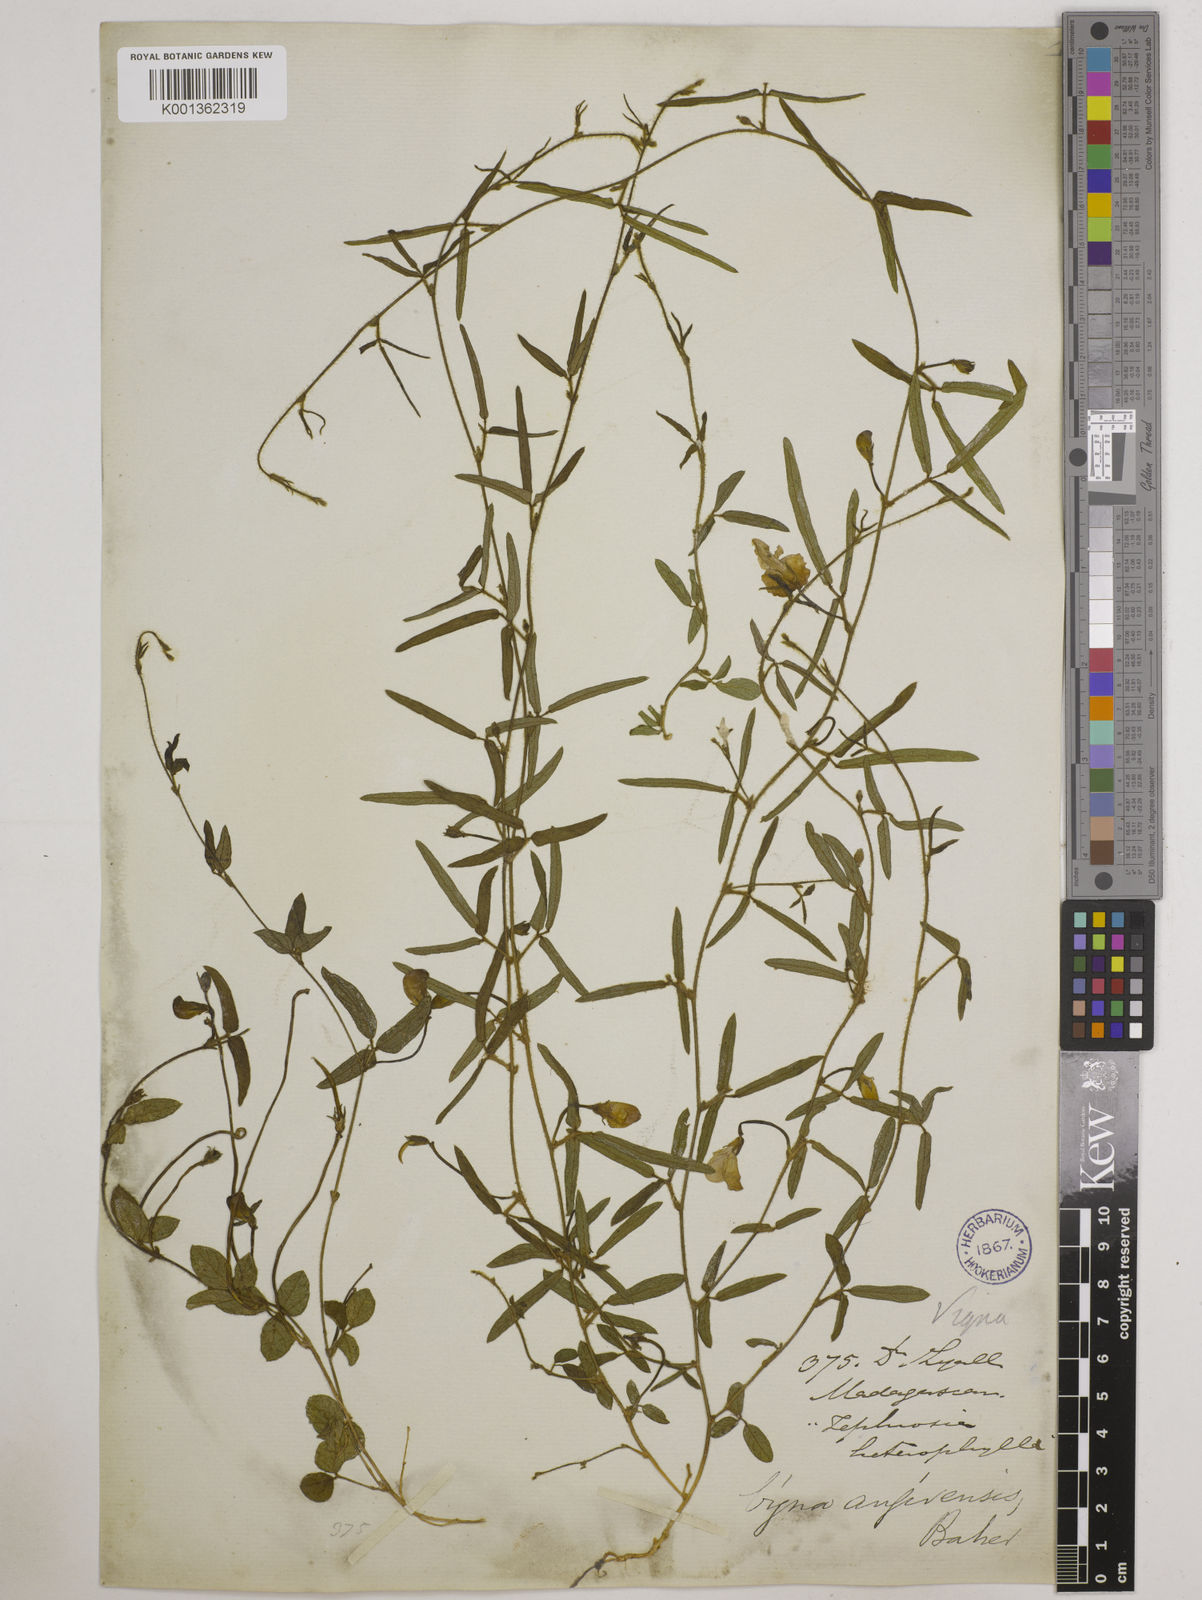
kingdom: Plantae
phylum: Tracheophyta
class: Magnoliopsida
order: Fabales
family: Fabaceae
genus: Vigna
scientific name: Vigna angivensis
